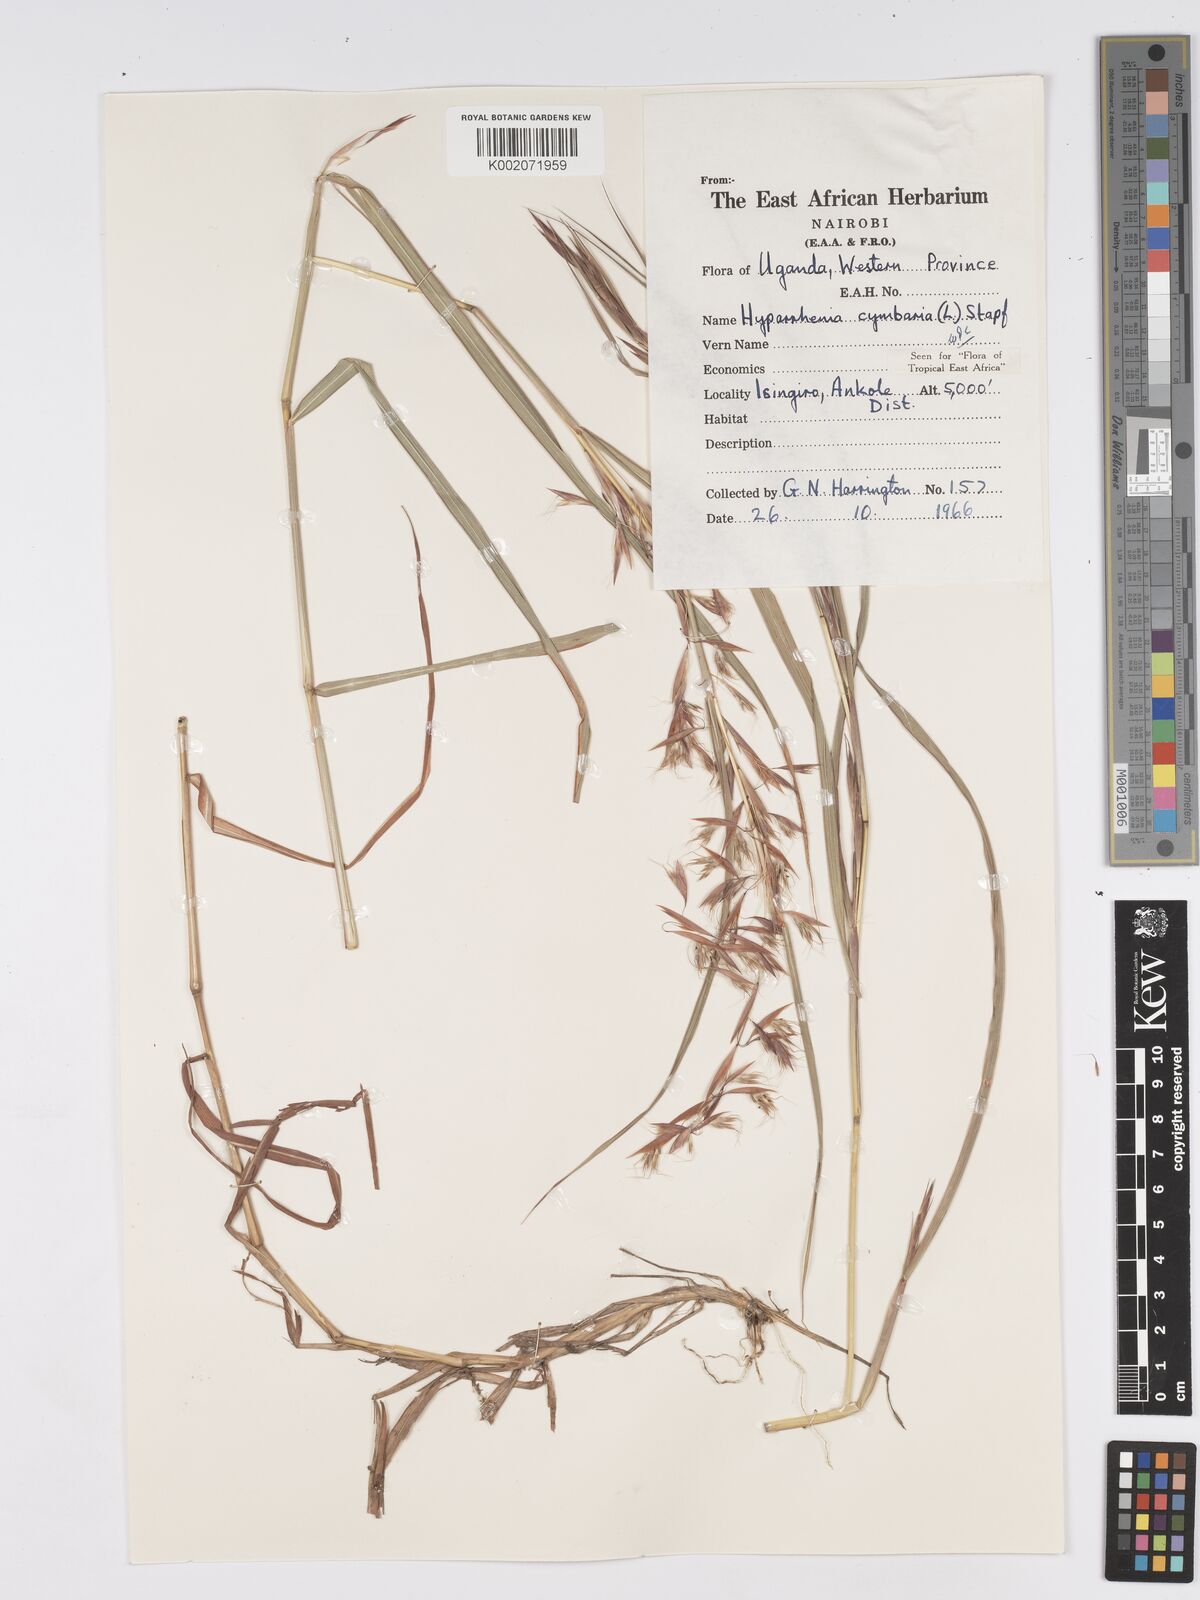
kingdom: Plantae
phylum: Tracheophyta
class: Liliopsida
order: Poales
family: Poaceae
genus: Hyparrhenia
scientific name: Hyparrhenia cymbaria
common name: Boat thatching grass
